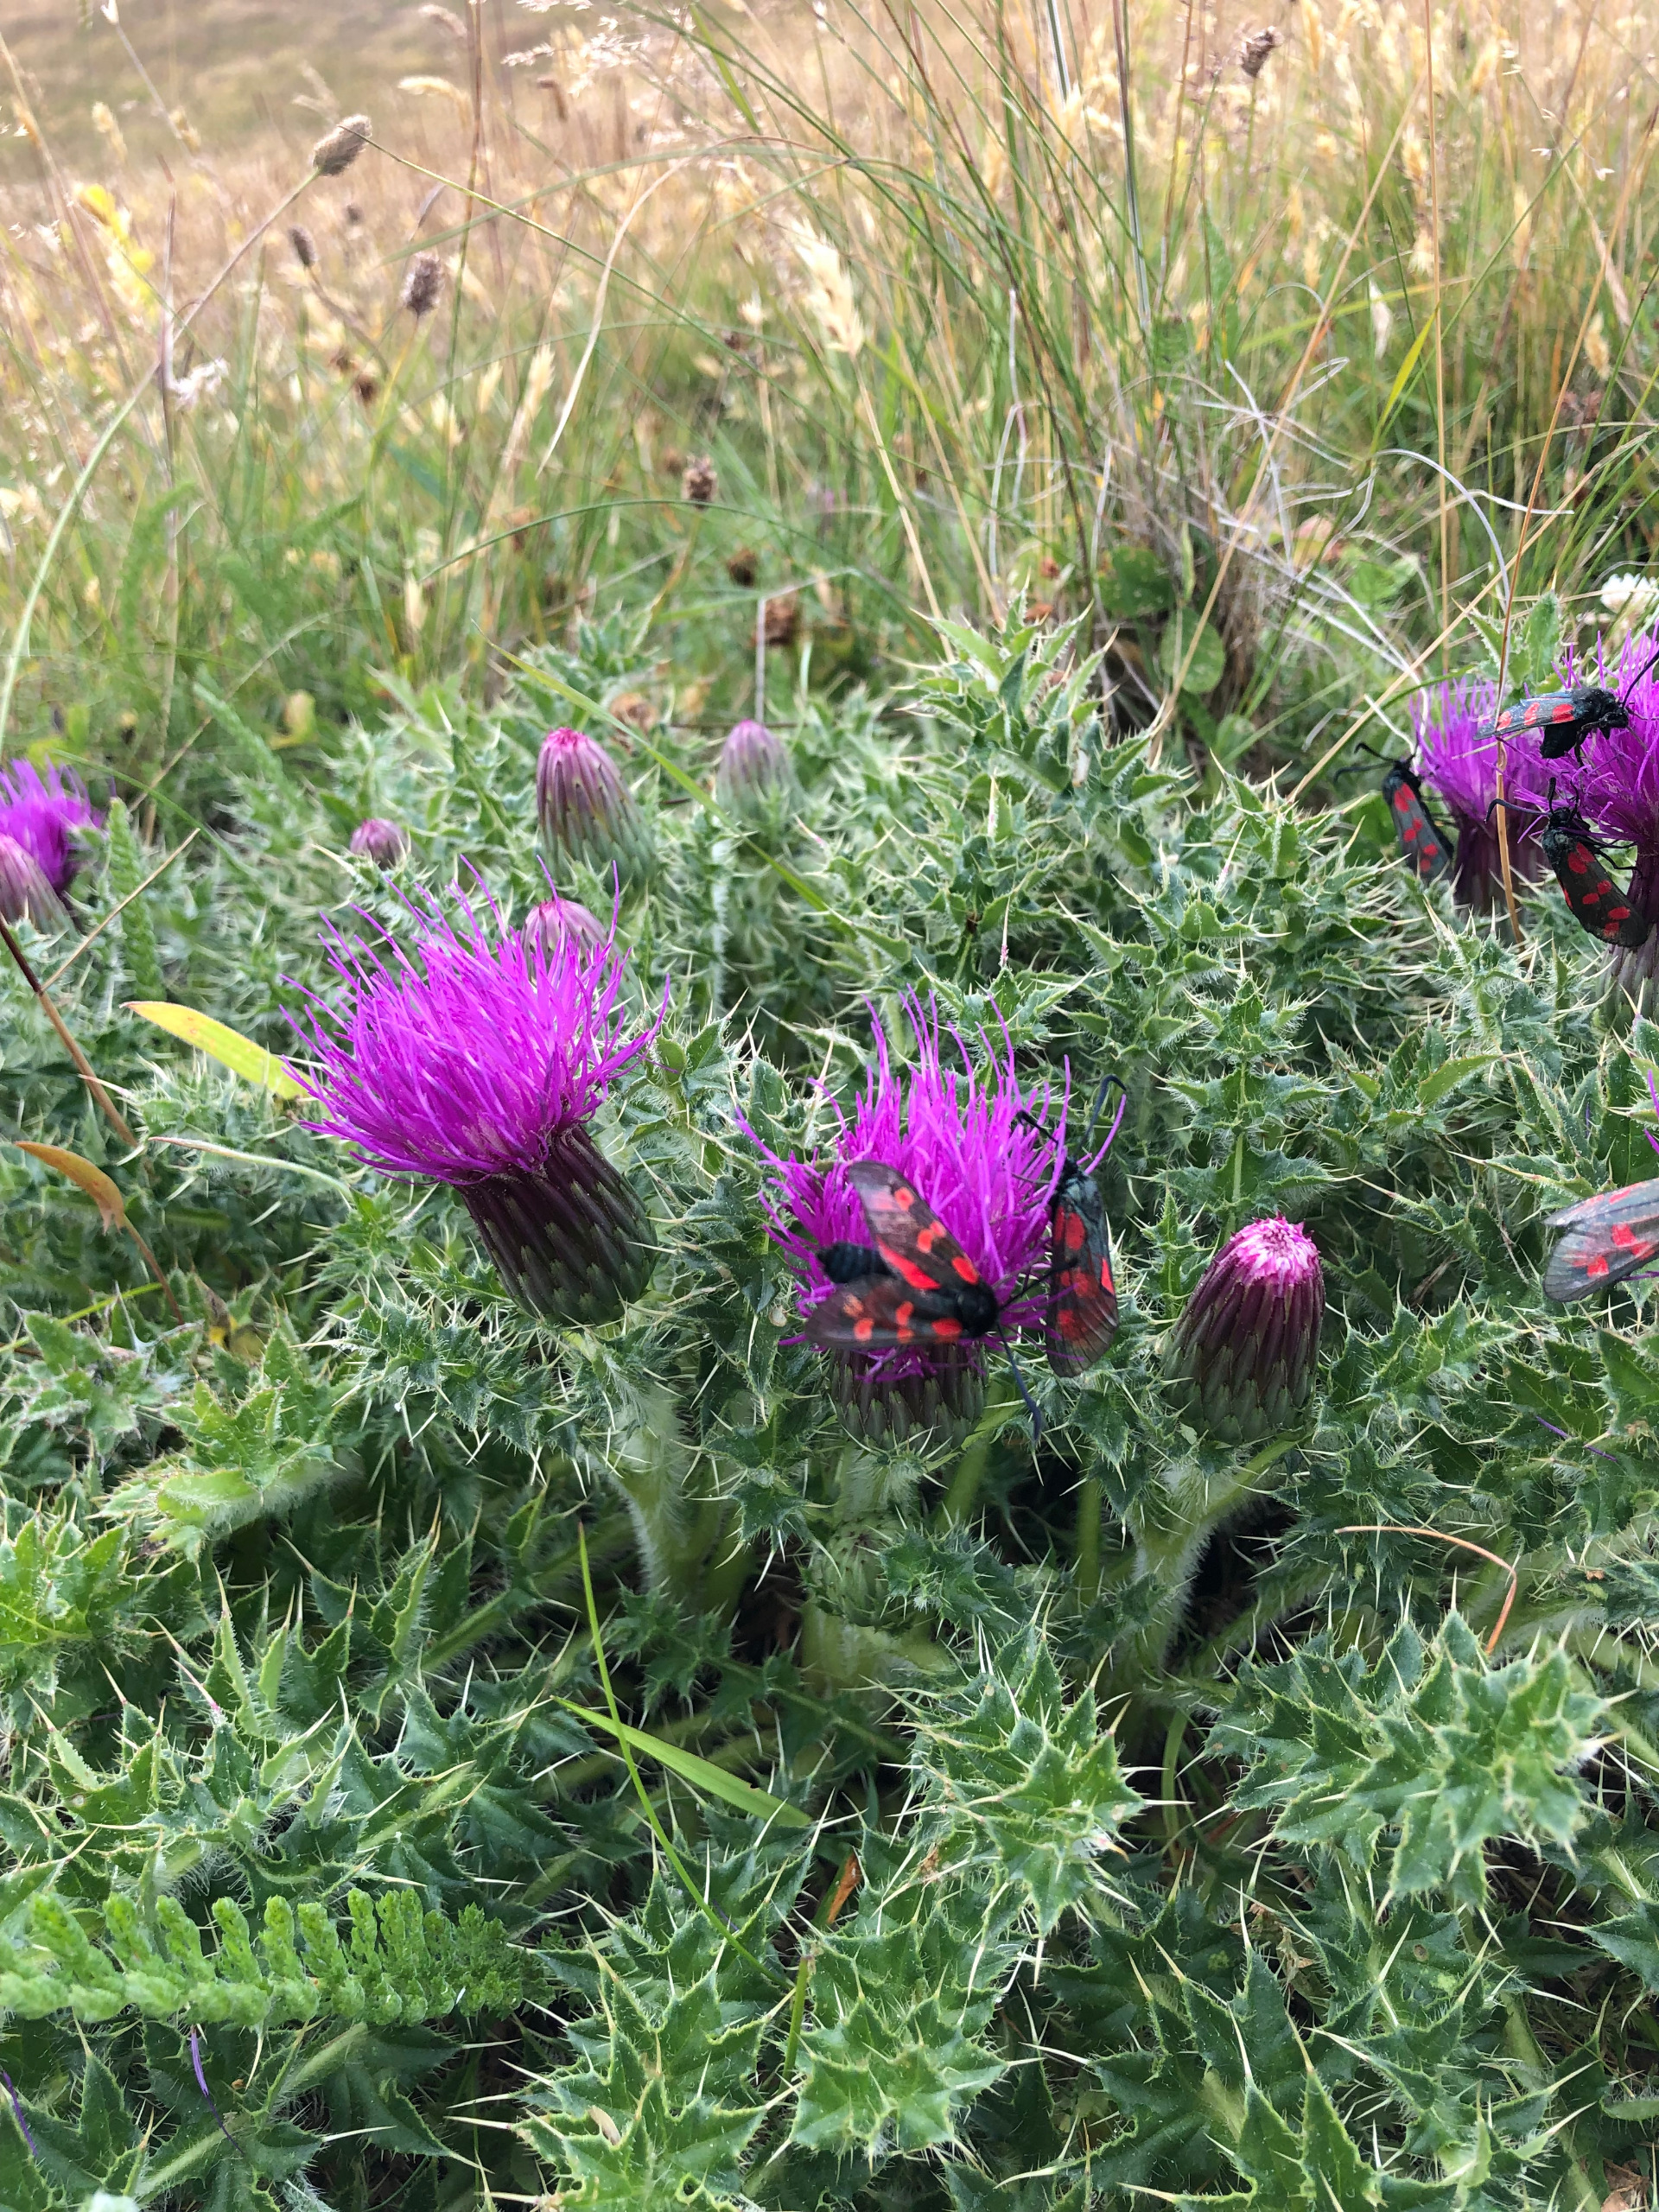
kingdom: Plantae
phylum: Tracheophyta
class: Magnoliopsida
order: Asterales
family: Asteraceae
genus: Cirsium
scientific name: Cirsium acaule
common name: Lav tidsel
